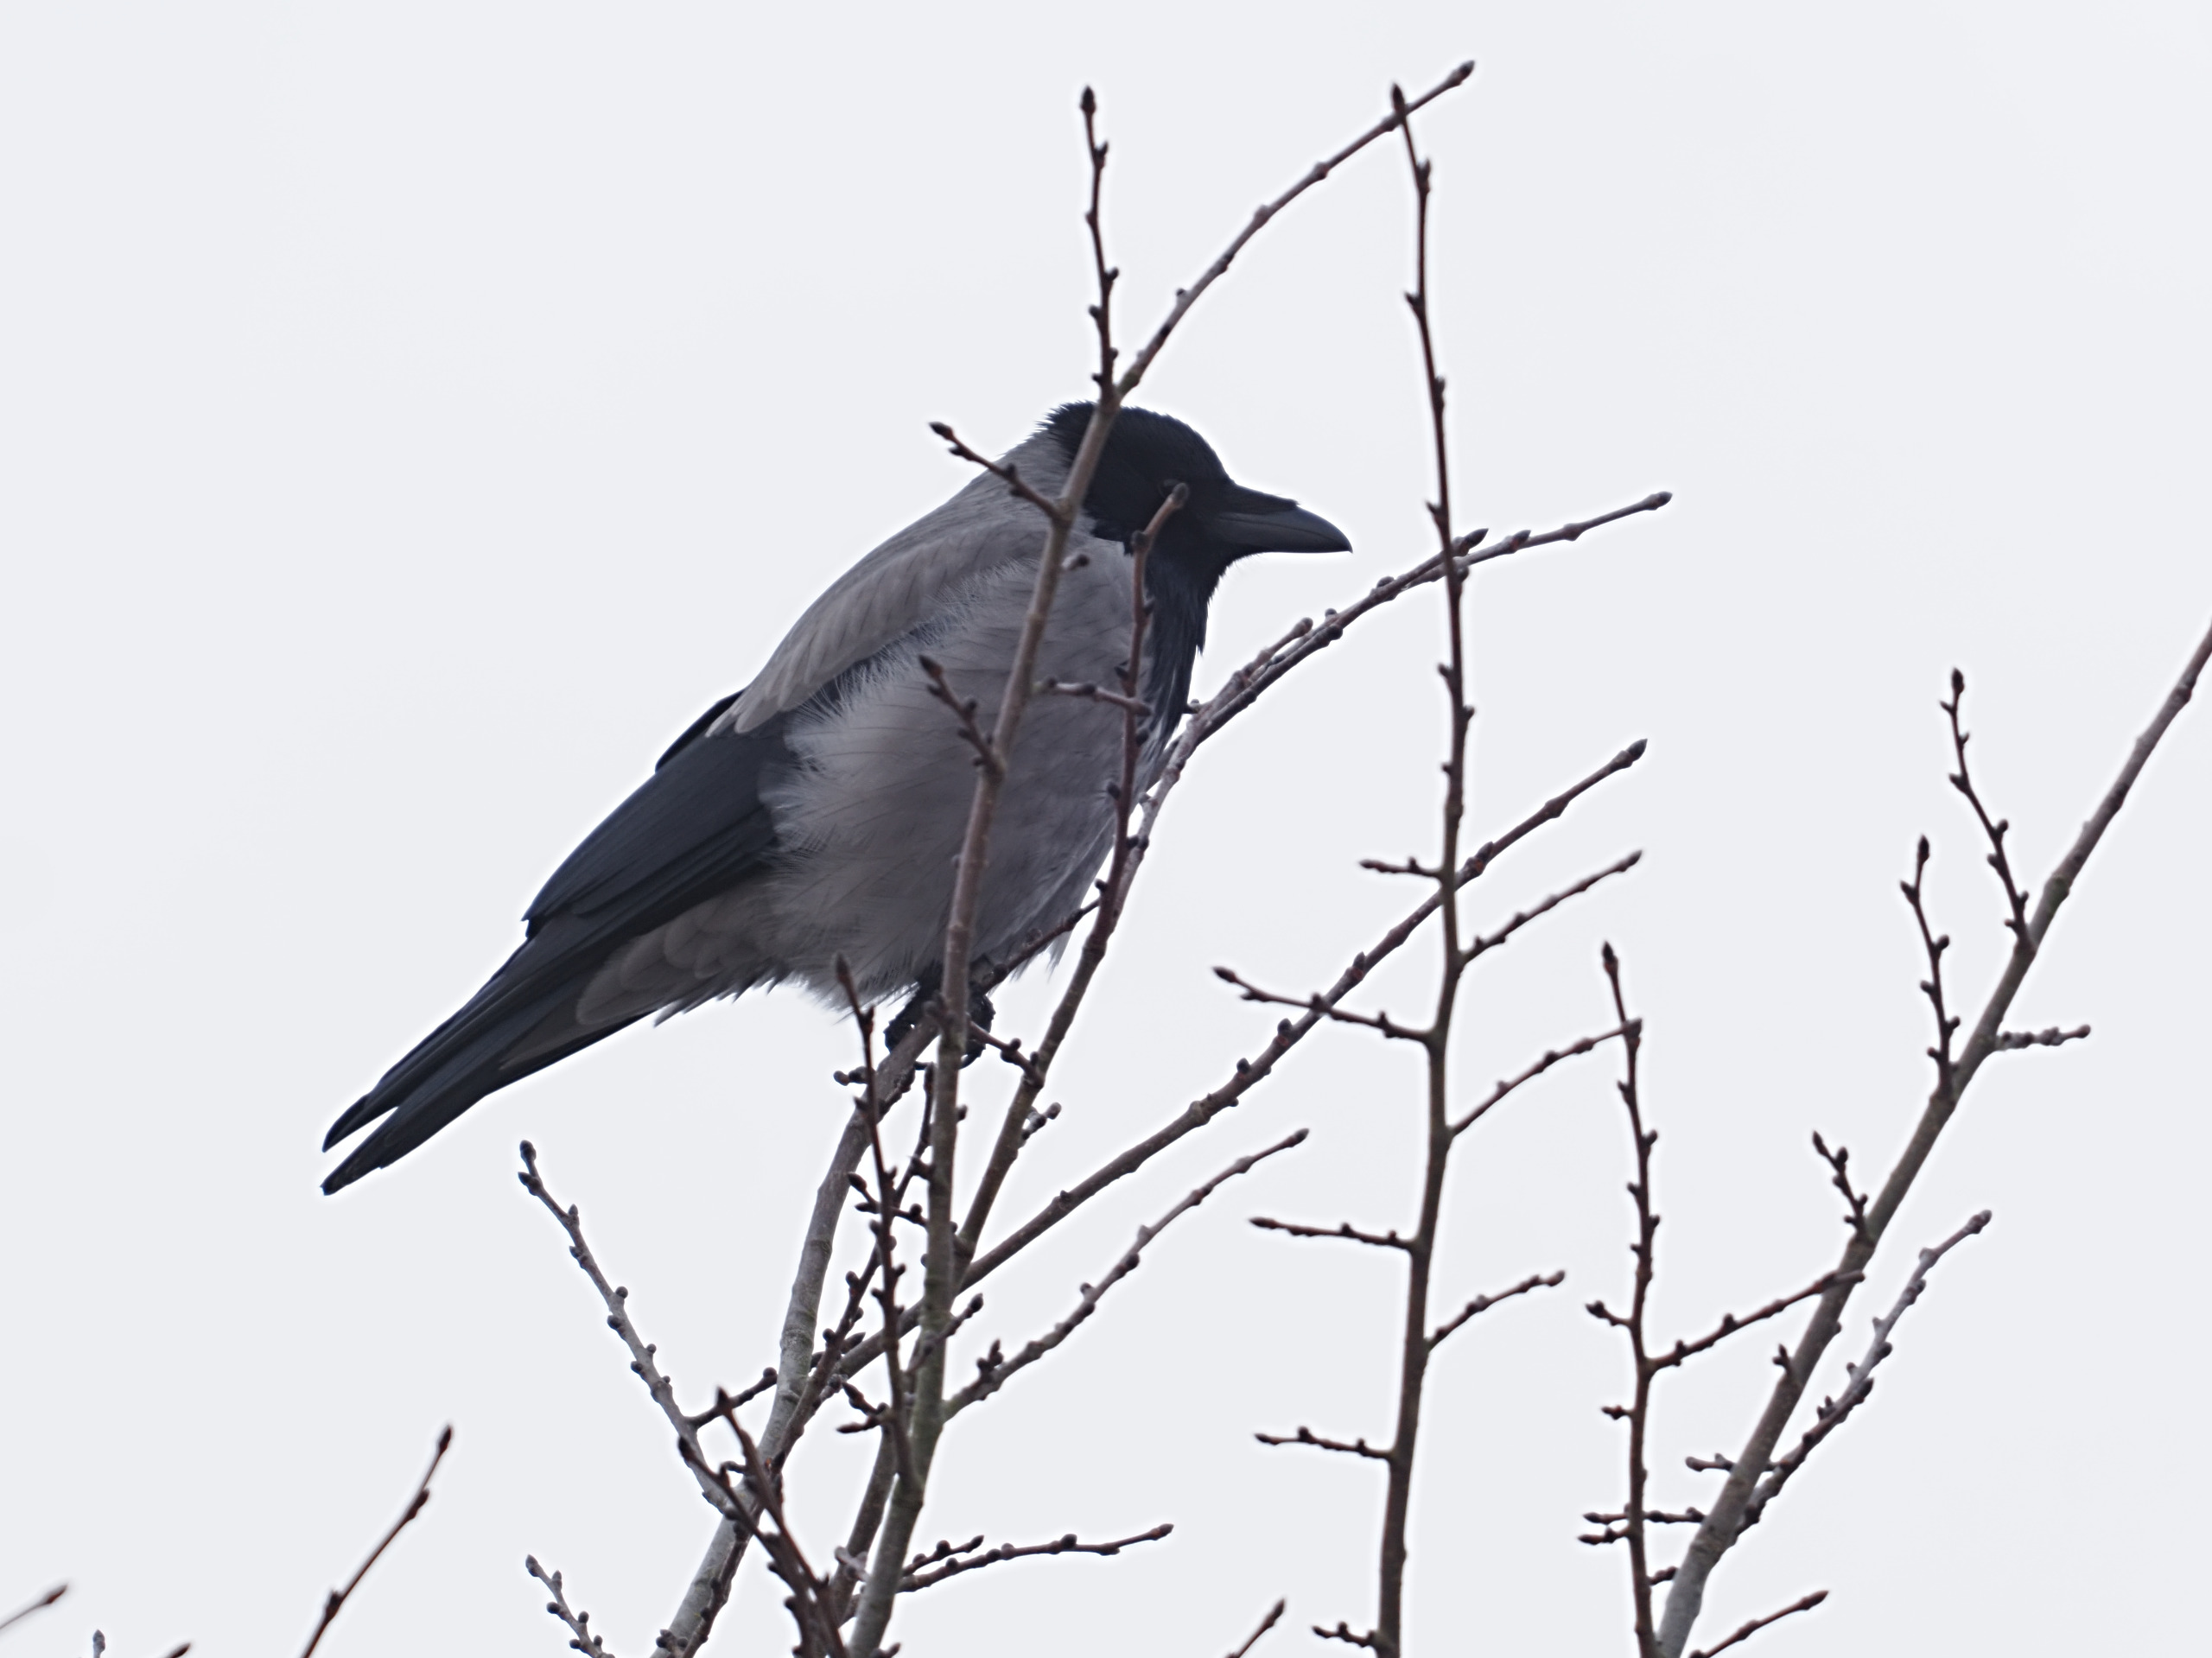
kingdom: Animalia
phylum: Chordata
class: Aves
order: Passeriformes
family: Corvidae
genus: Corvus
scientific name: Corvus cornix
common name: Gråkrage
